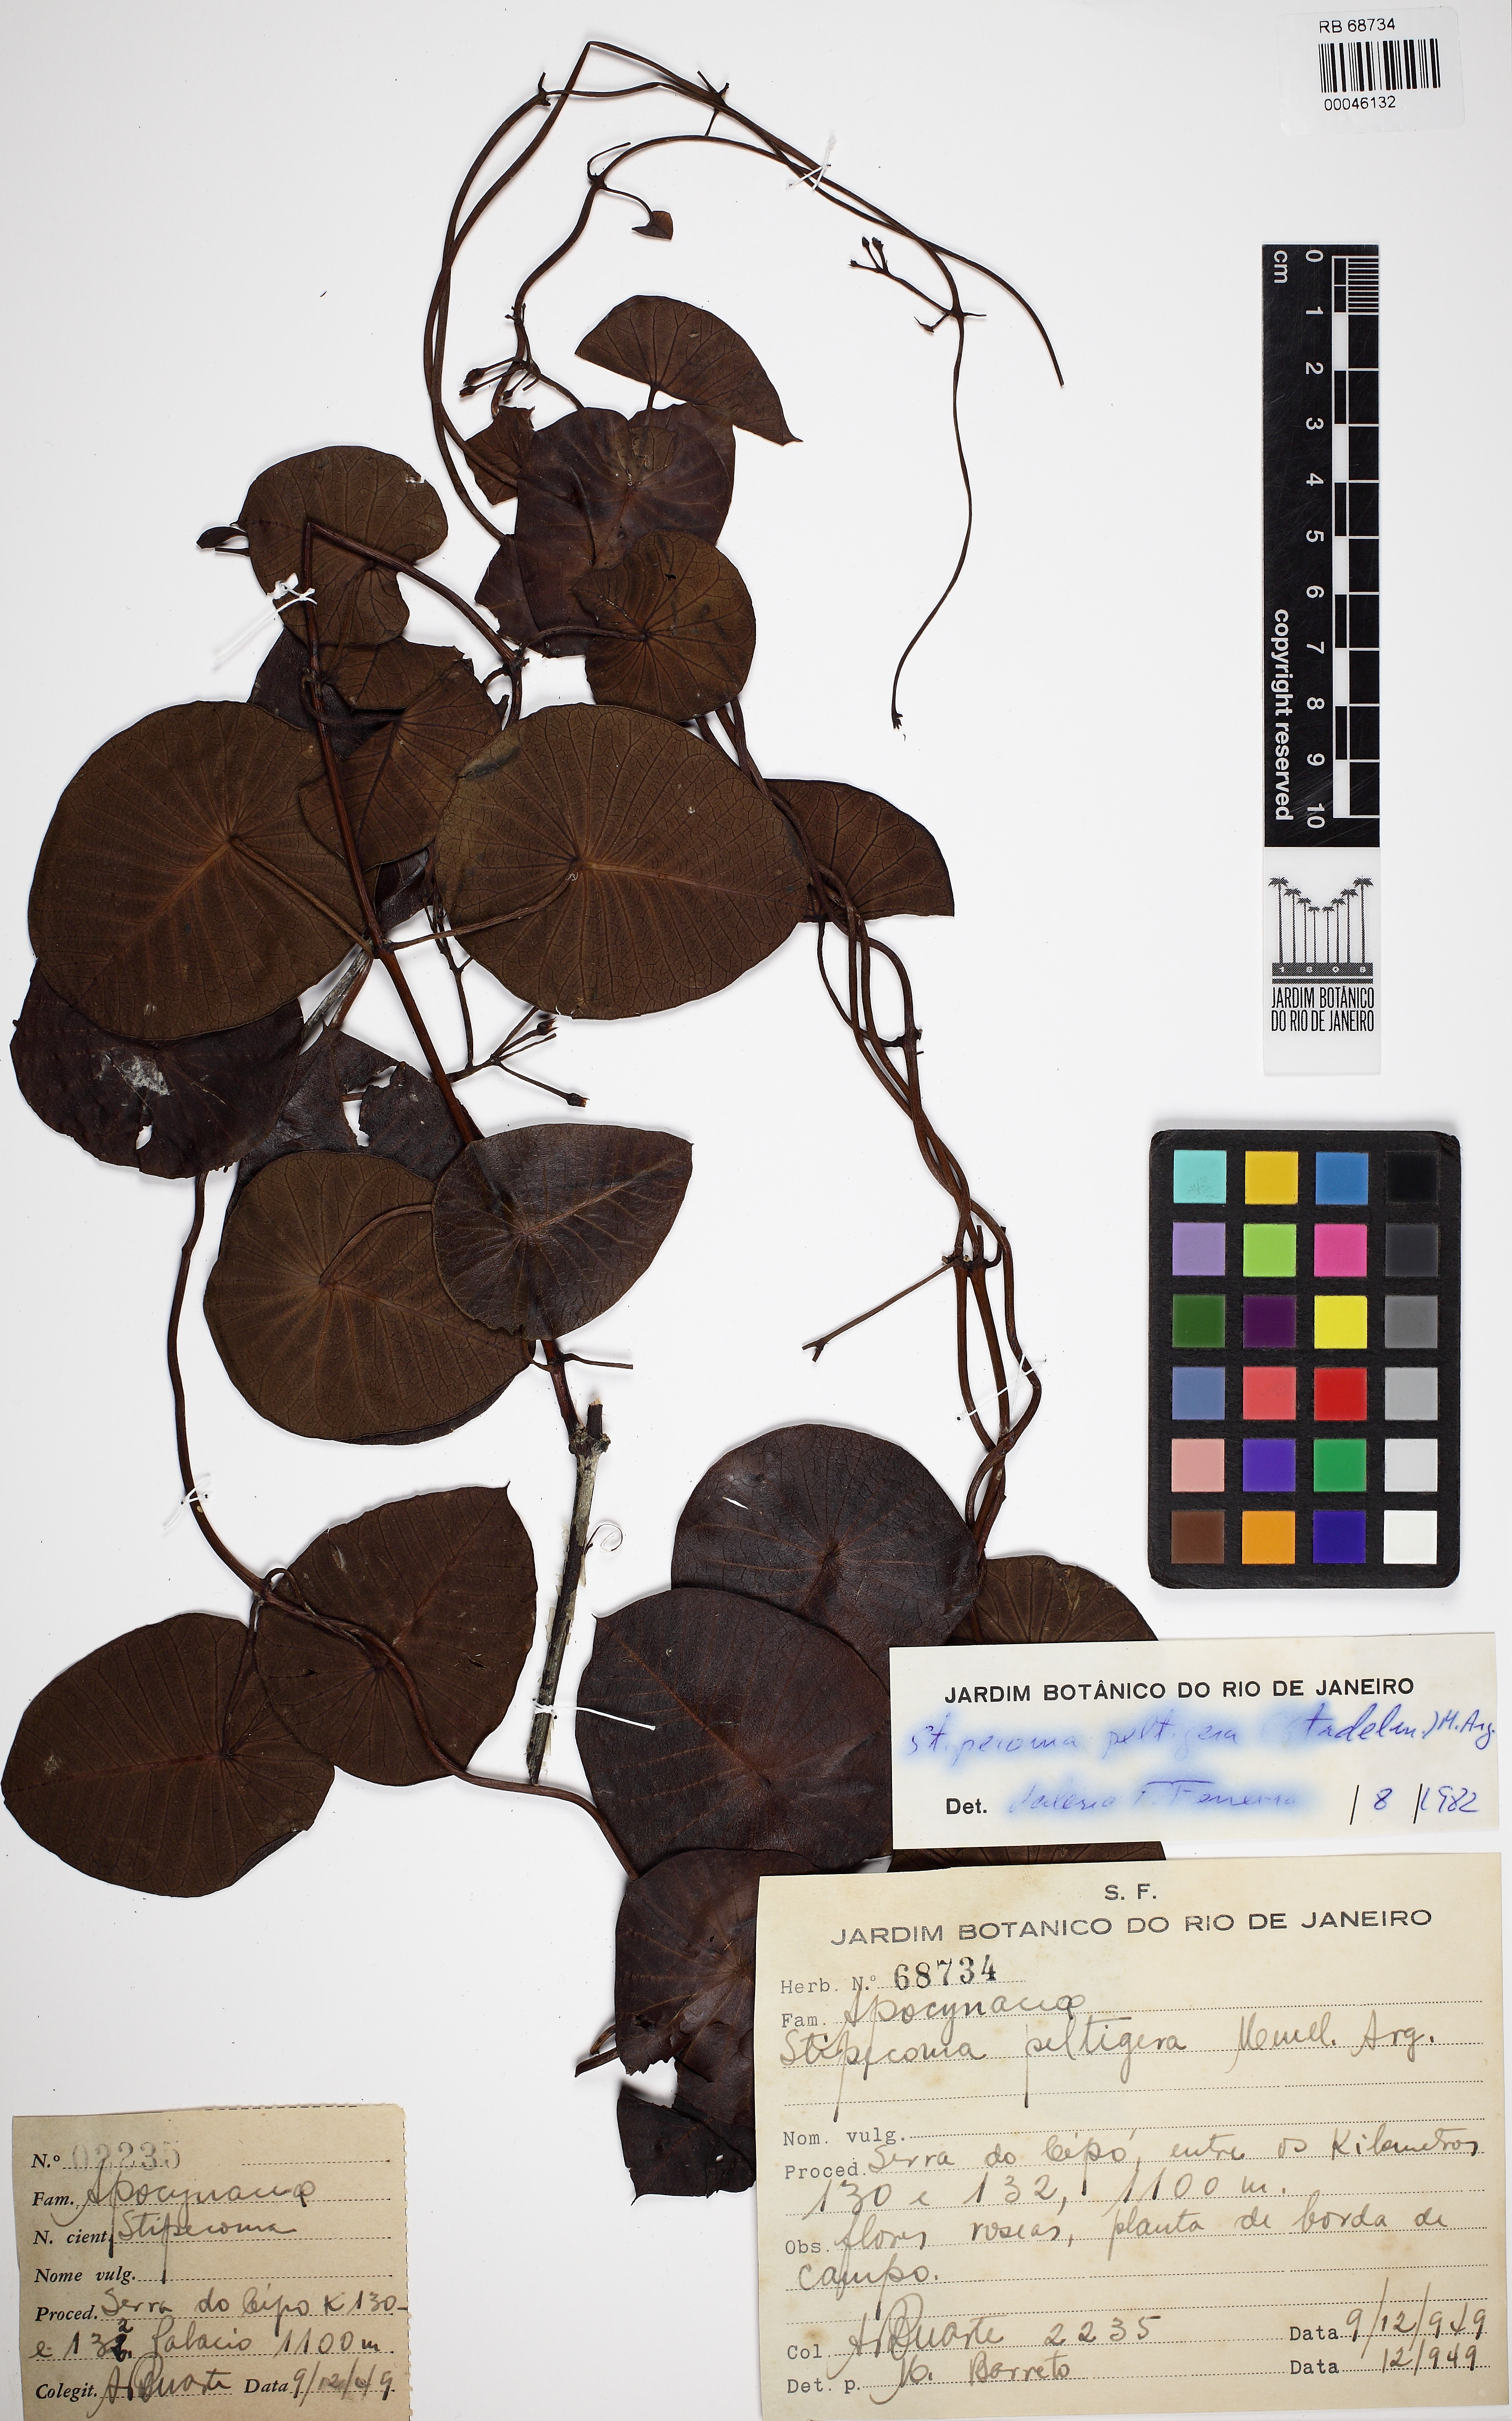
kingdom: Plantae
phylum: Tracheophyta
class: Magnoliopsida
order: Gentianales
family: Apocynaceae
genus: Stipecoma
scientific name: Stipecoma peltigera
